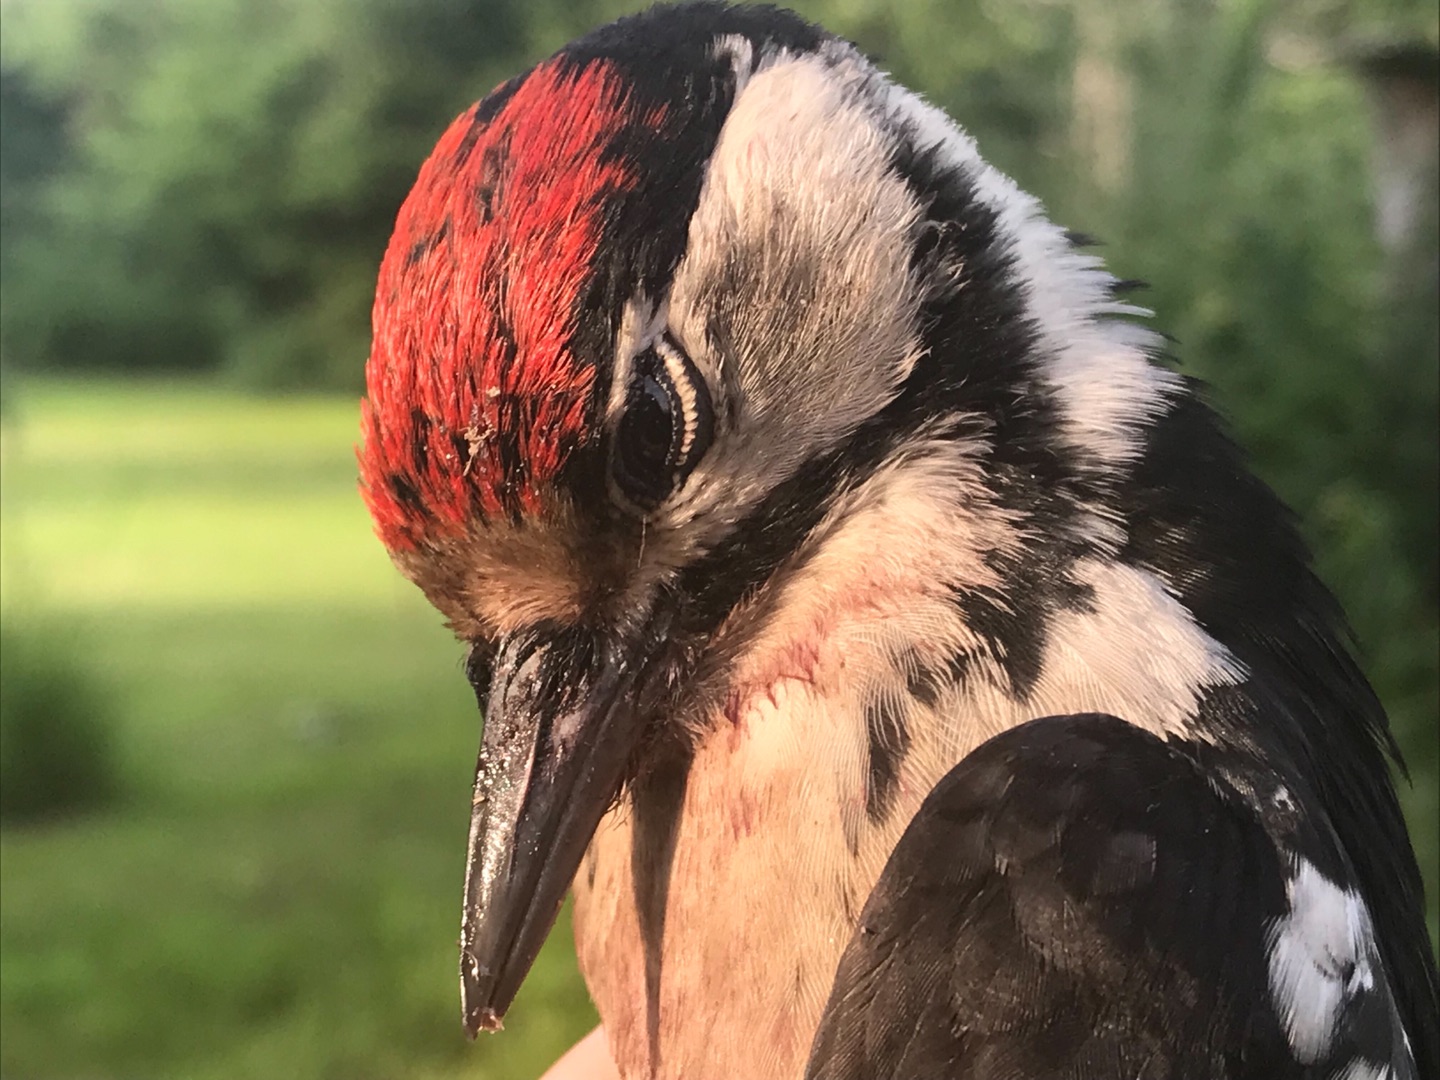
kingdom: Animalia
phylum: Chordata
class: Aves
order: Piciformes
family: Picidae
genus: Dendrocopos
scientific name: Dendrocopos major
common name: Stor flagspætte
